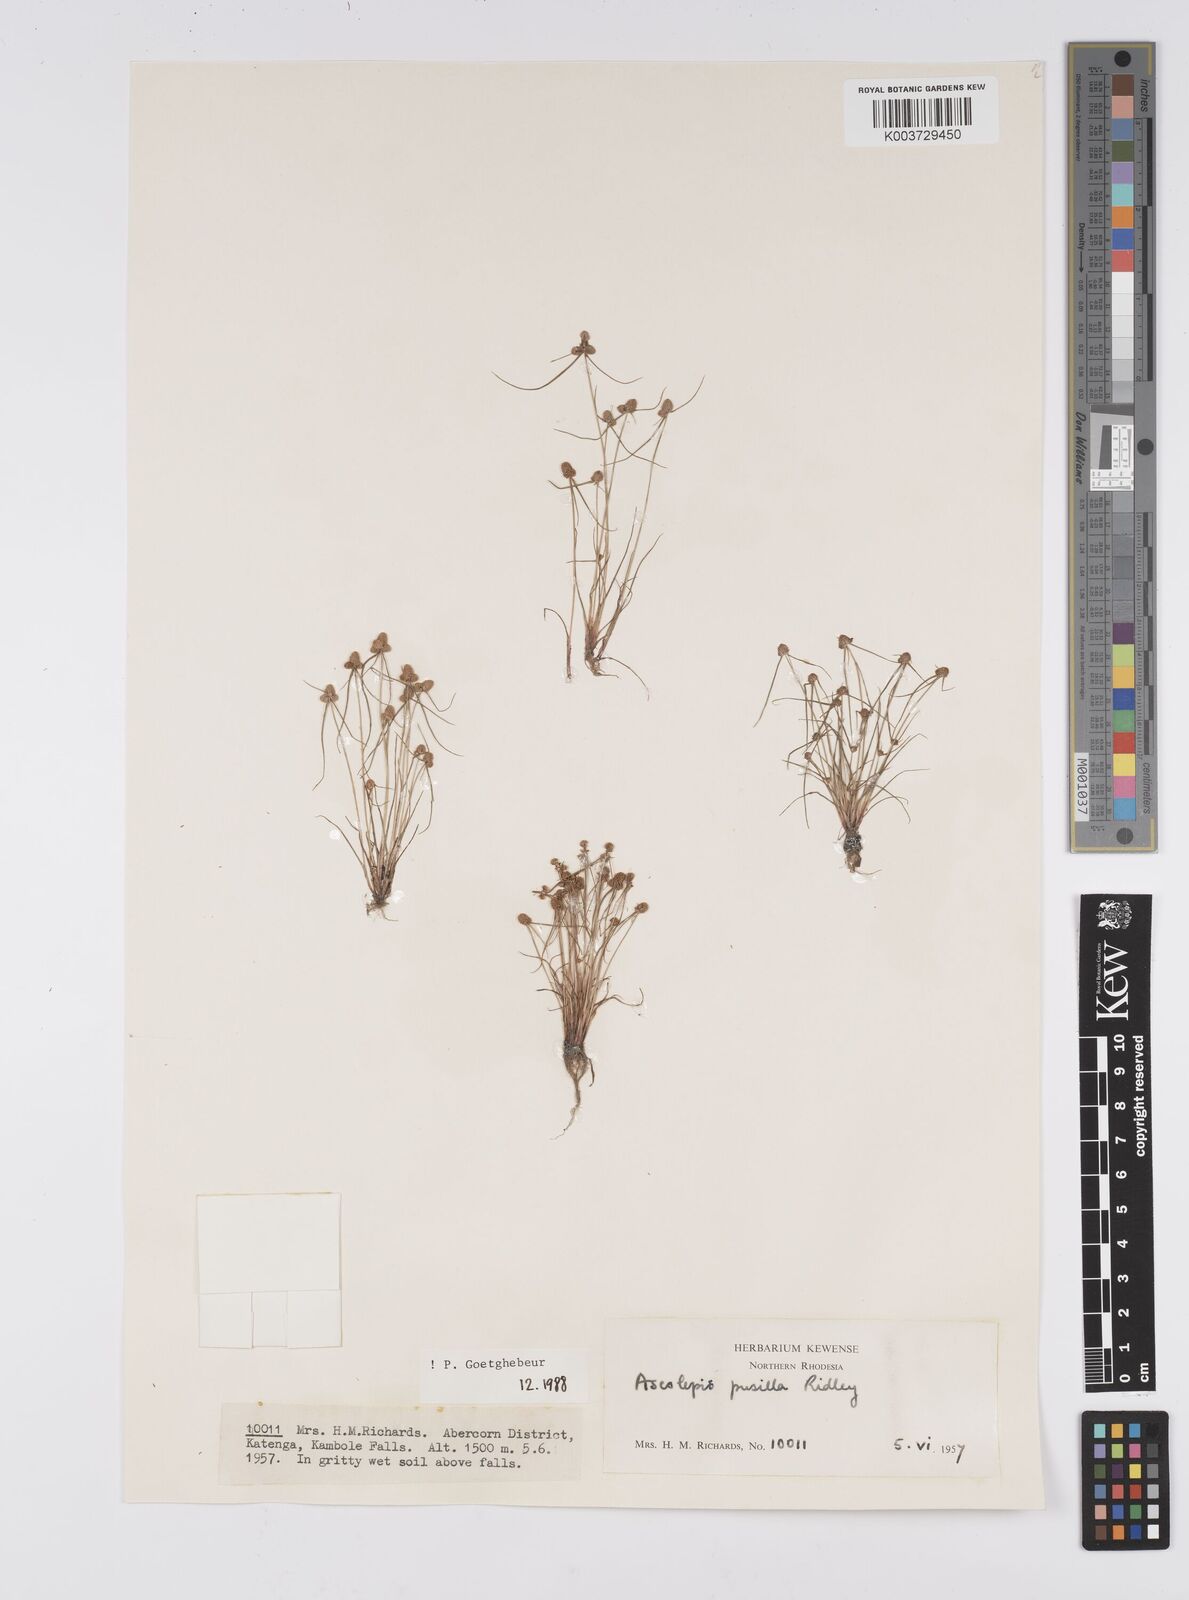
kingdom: Plantae
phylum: Tracheophyta
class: Liliopsida
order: Poales
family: Cyperaceae
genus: Cyperus
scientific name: Cyperus
